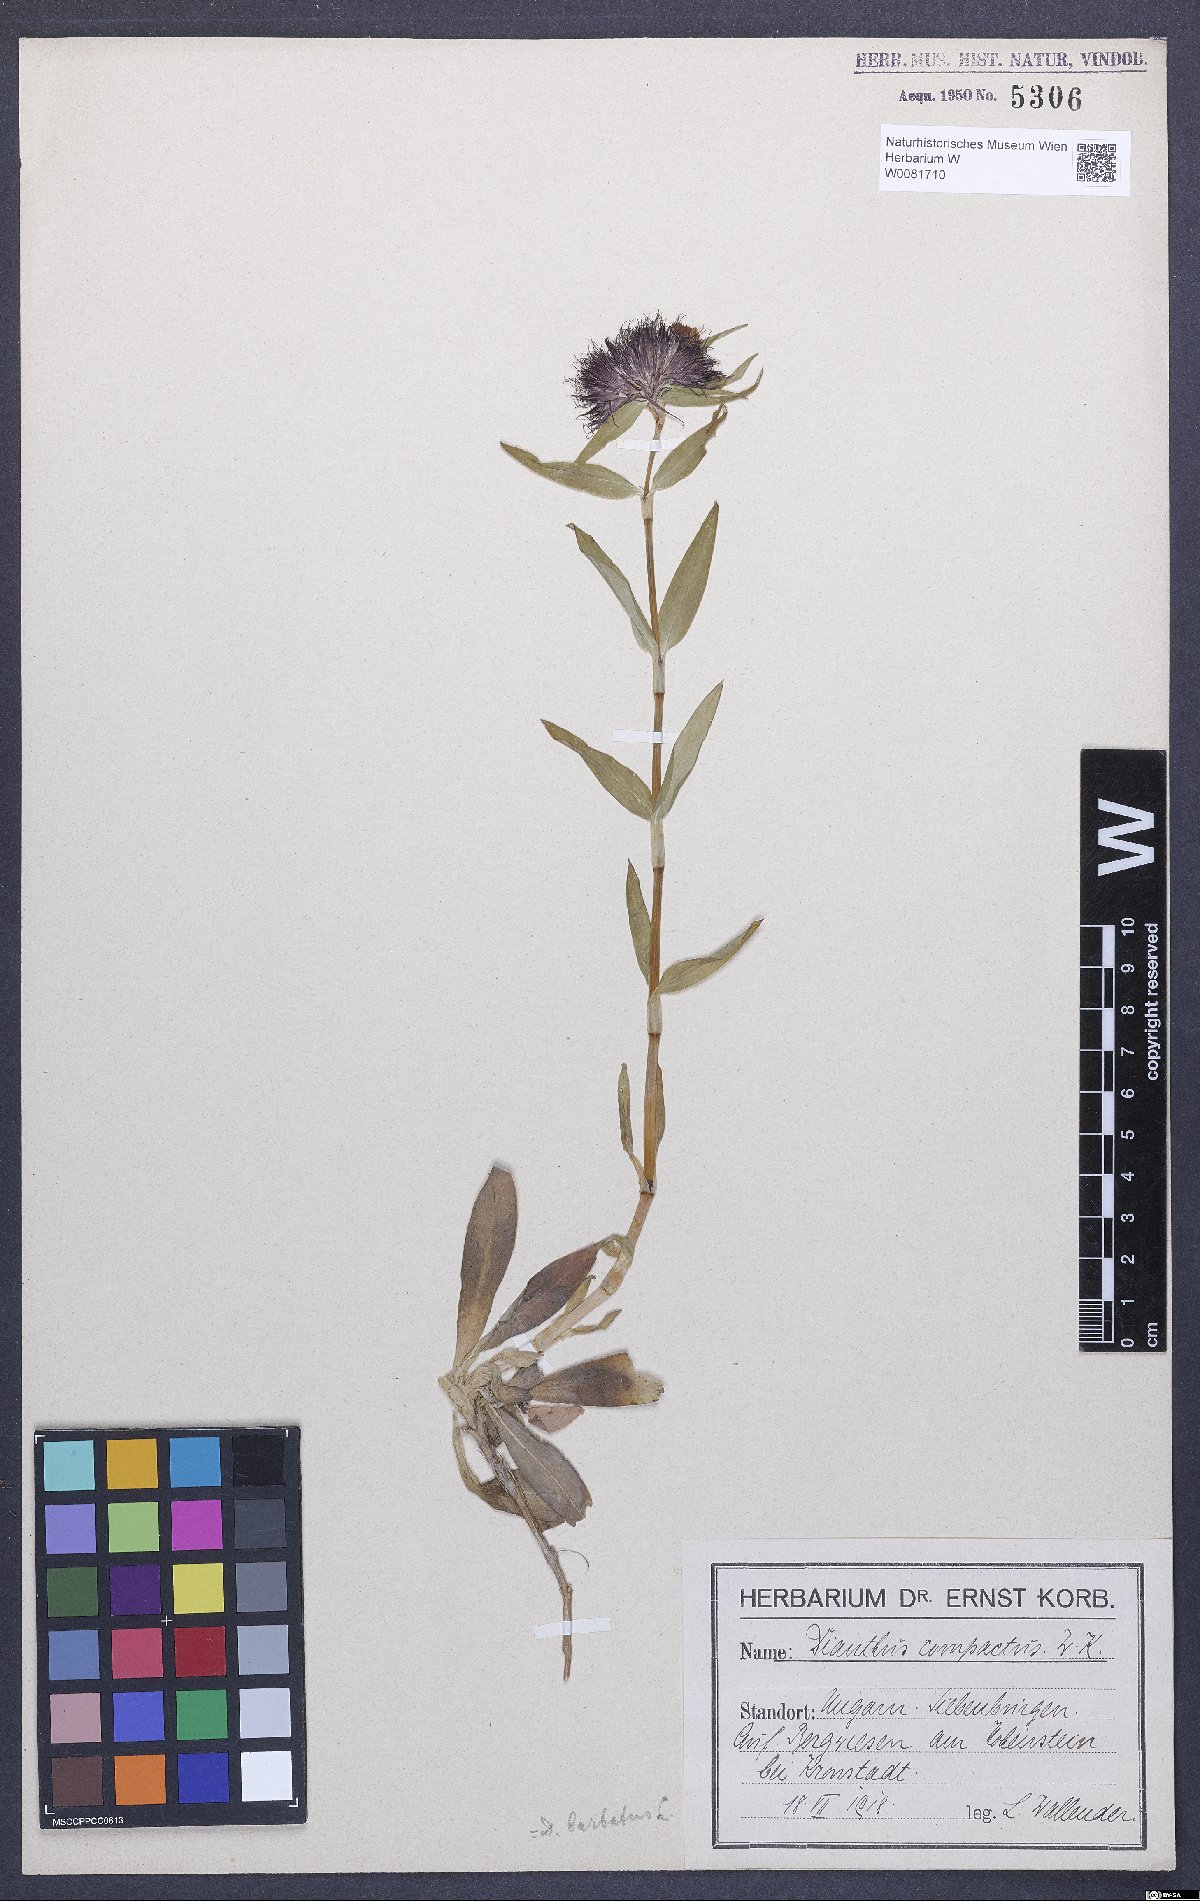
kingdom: Plantae
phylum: Tracheophyta
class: Magnoliopsida
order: Caryophyllales
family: Caryophyllaceae
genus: Dianthus
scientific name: Dianthus barbatus
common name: Sweet-william
